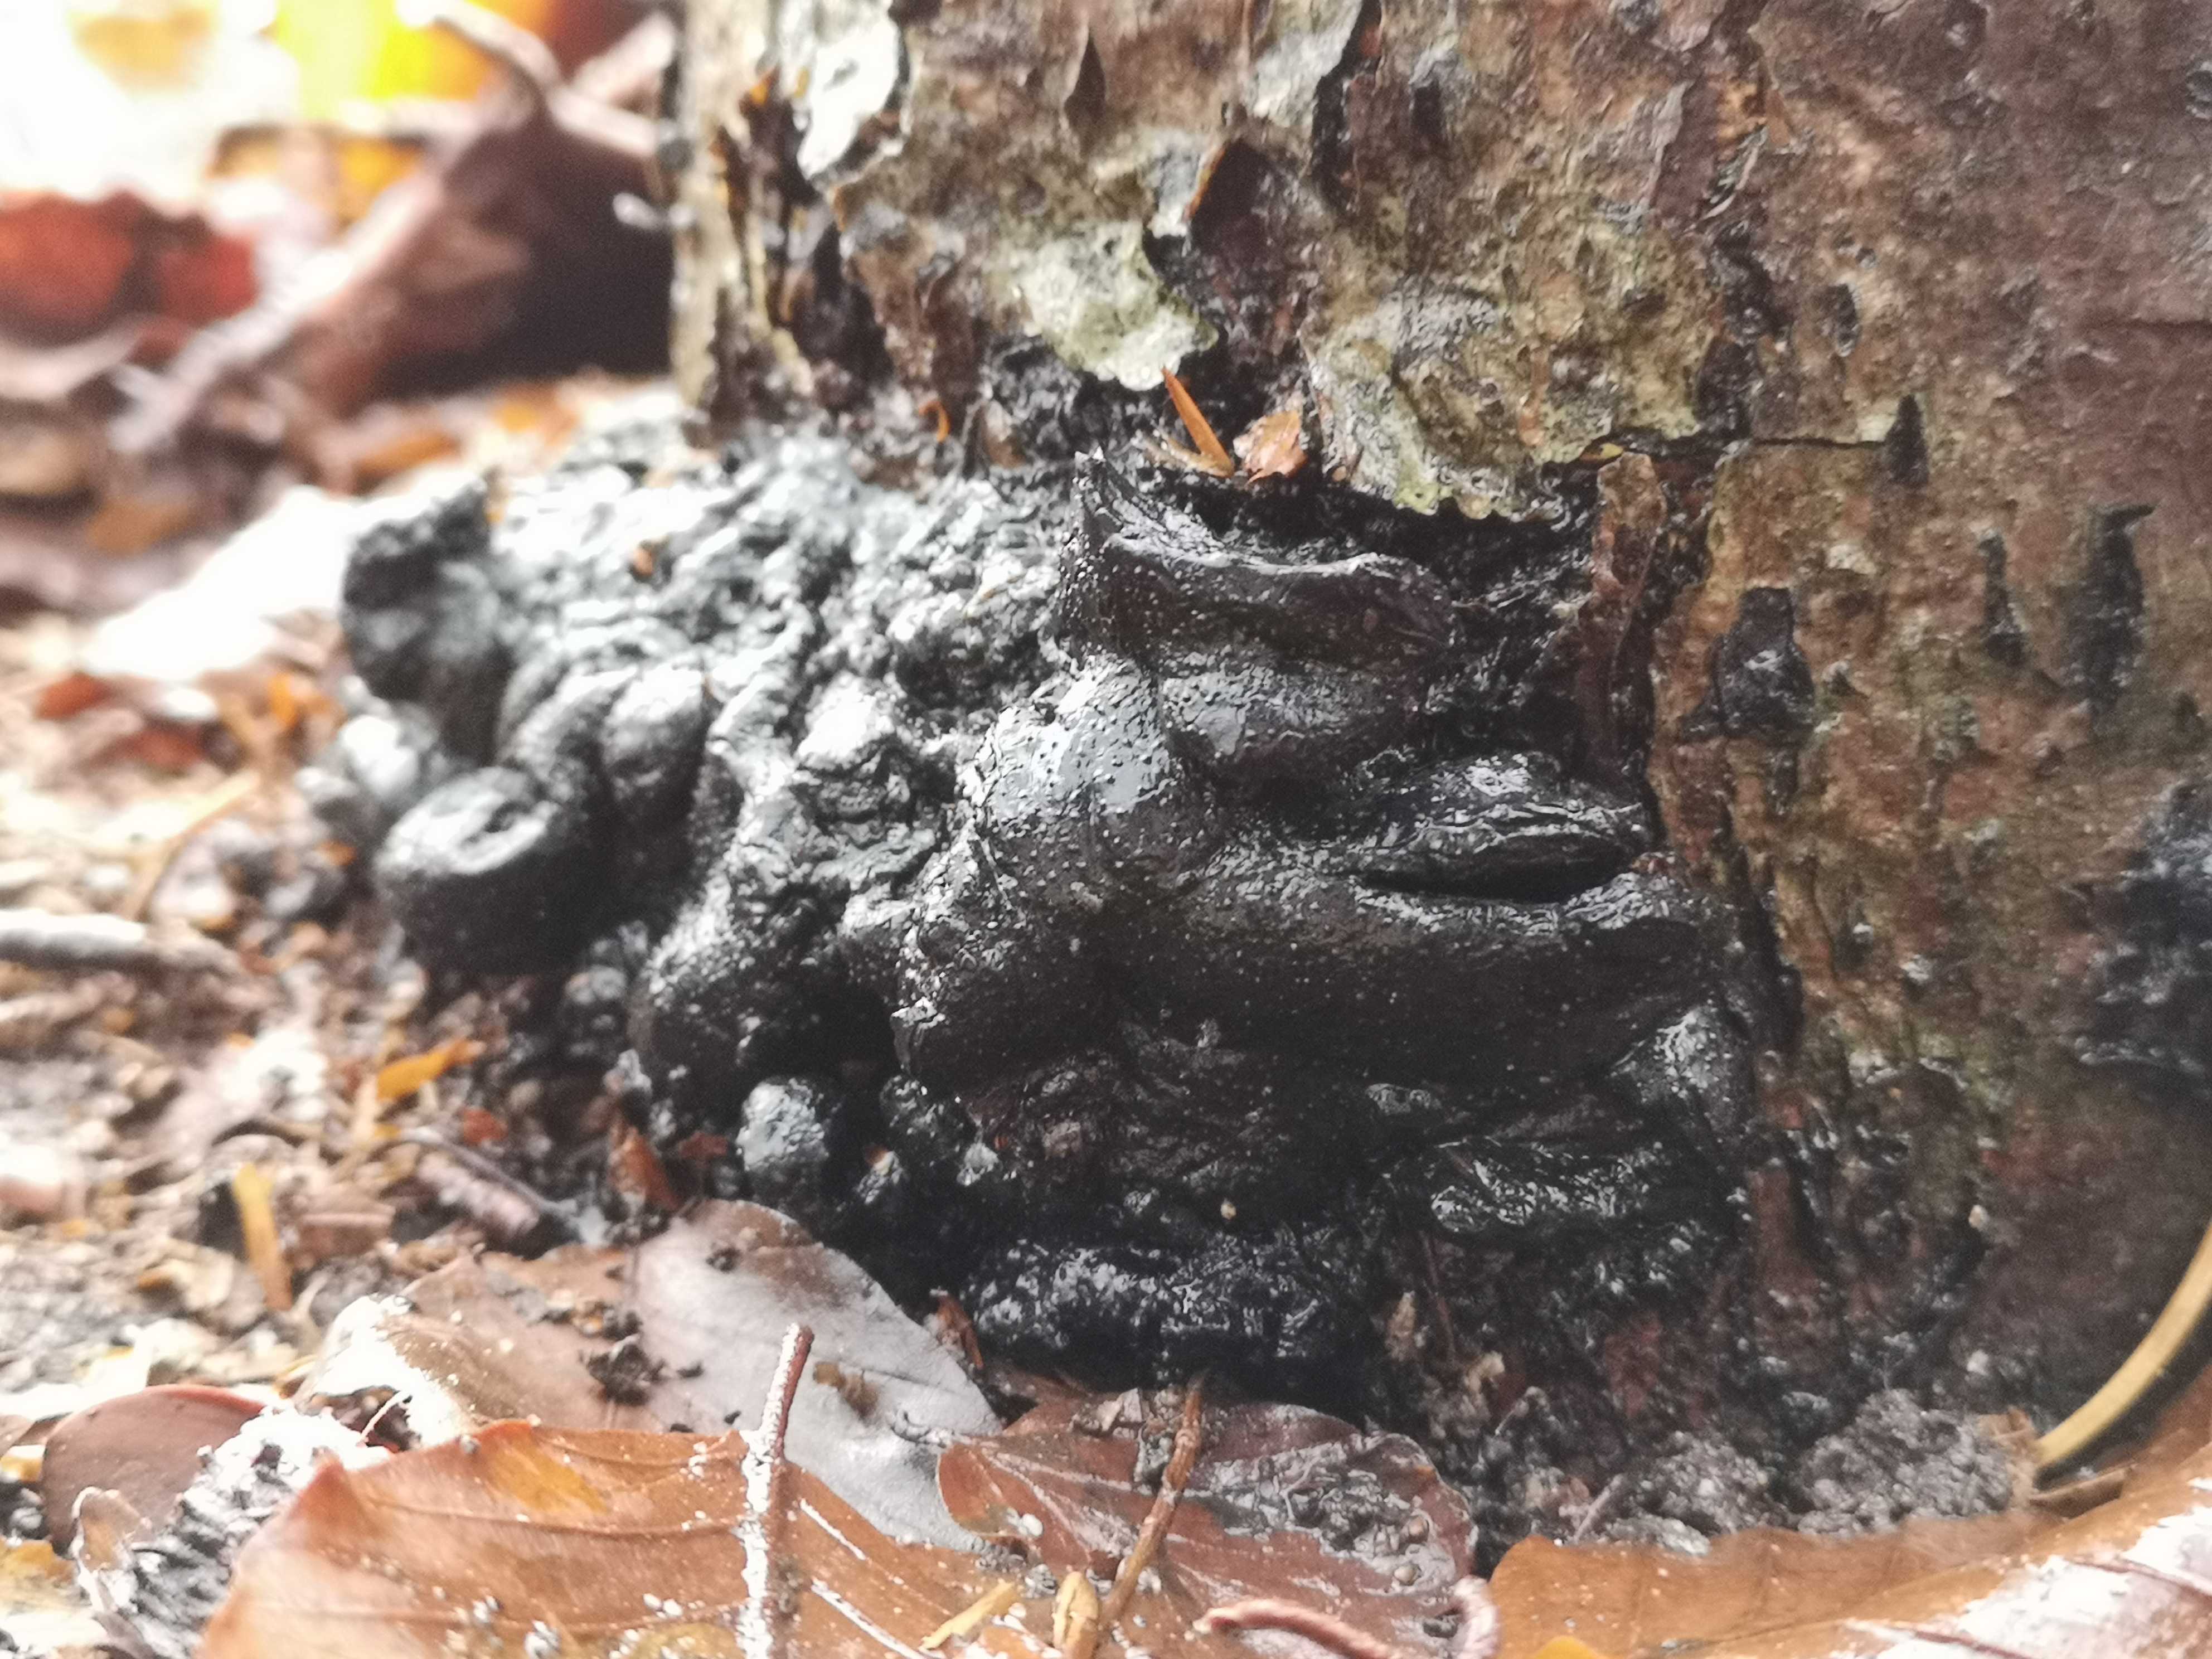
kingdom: Fungi
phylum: Ascomycota
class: Sordariomycetes
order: Xylariales
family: Xylariaceae
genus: Kretzschmaria
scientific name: Kretzschmaria deusta
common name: stor kulsvamp
